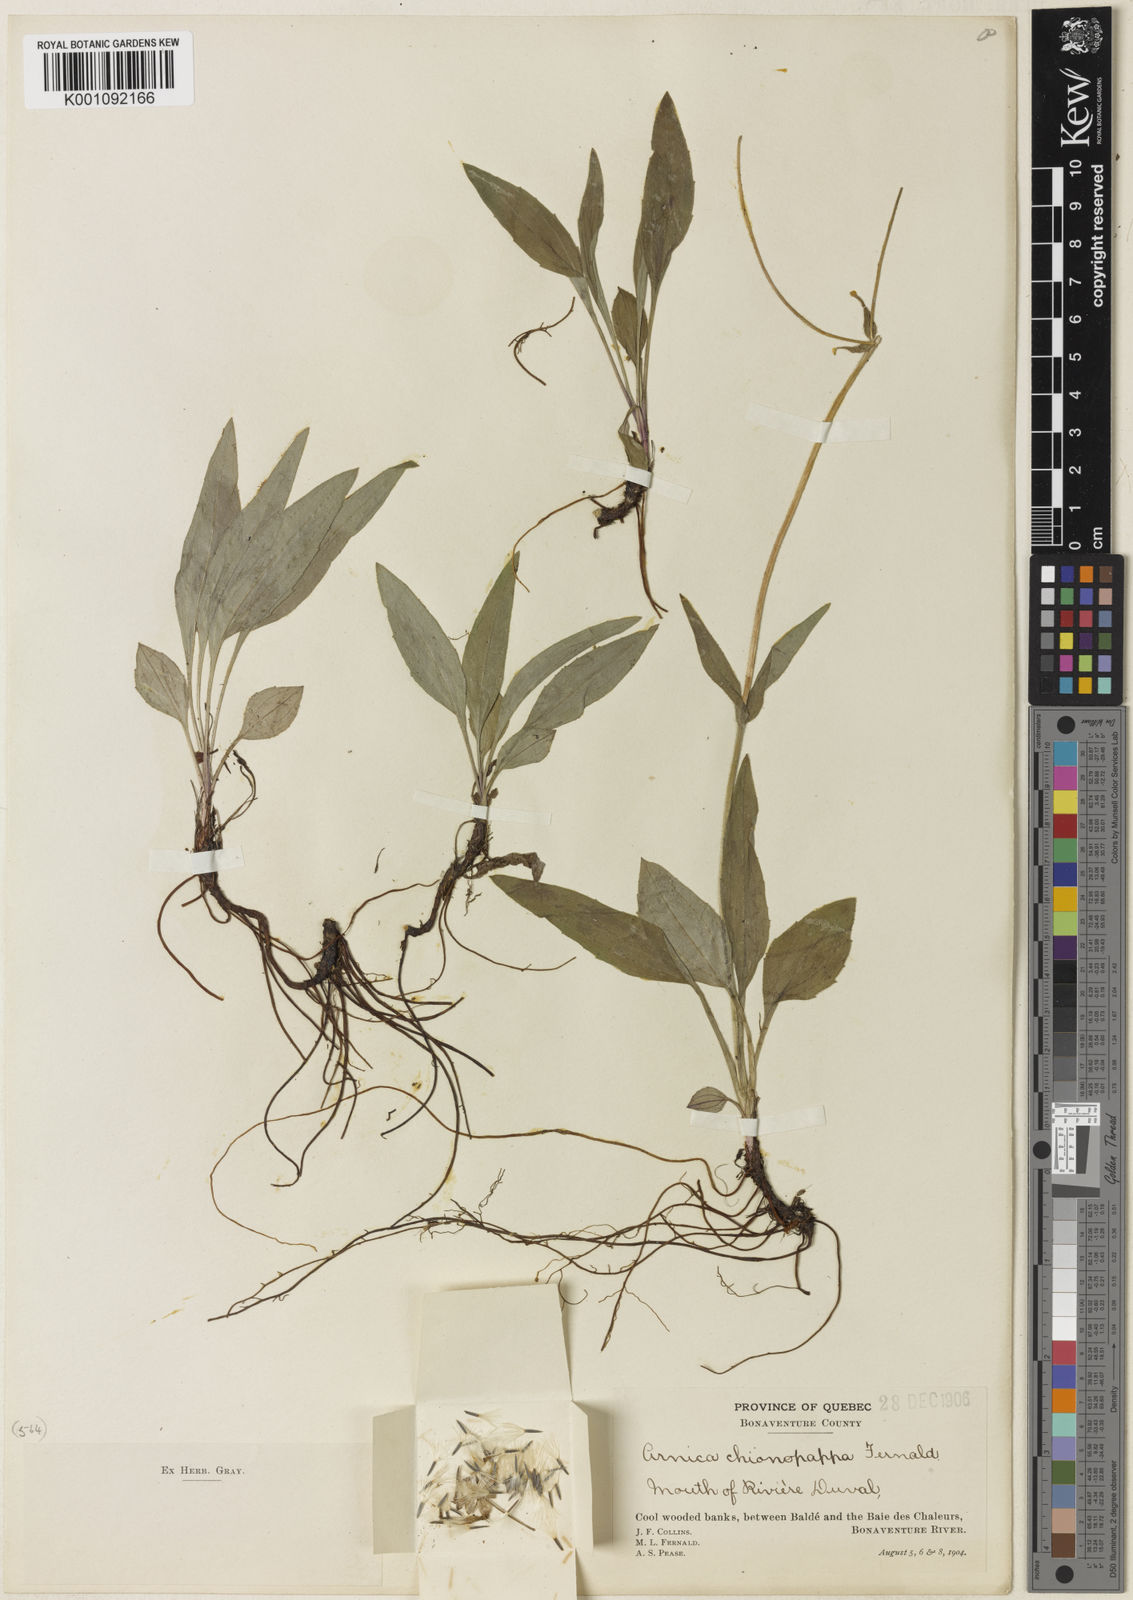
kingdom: Plantae
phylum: Tracheophyta
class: Magnoliopsida
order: Asterales
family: Asteraceae
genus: Arnica
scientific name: Arnica
